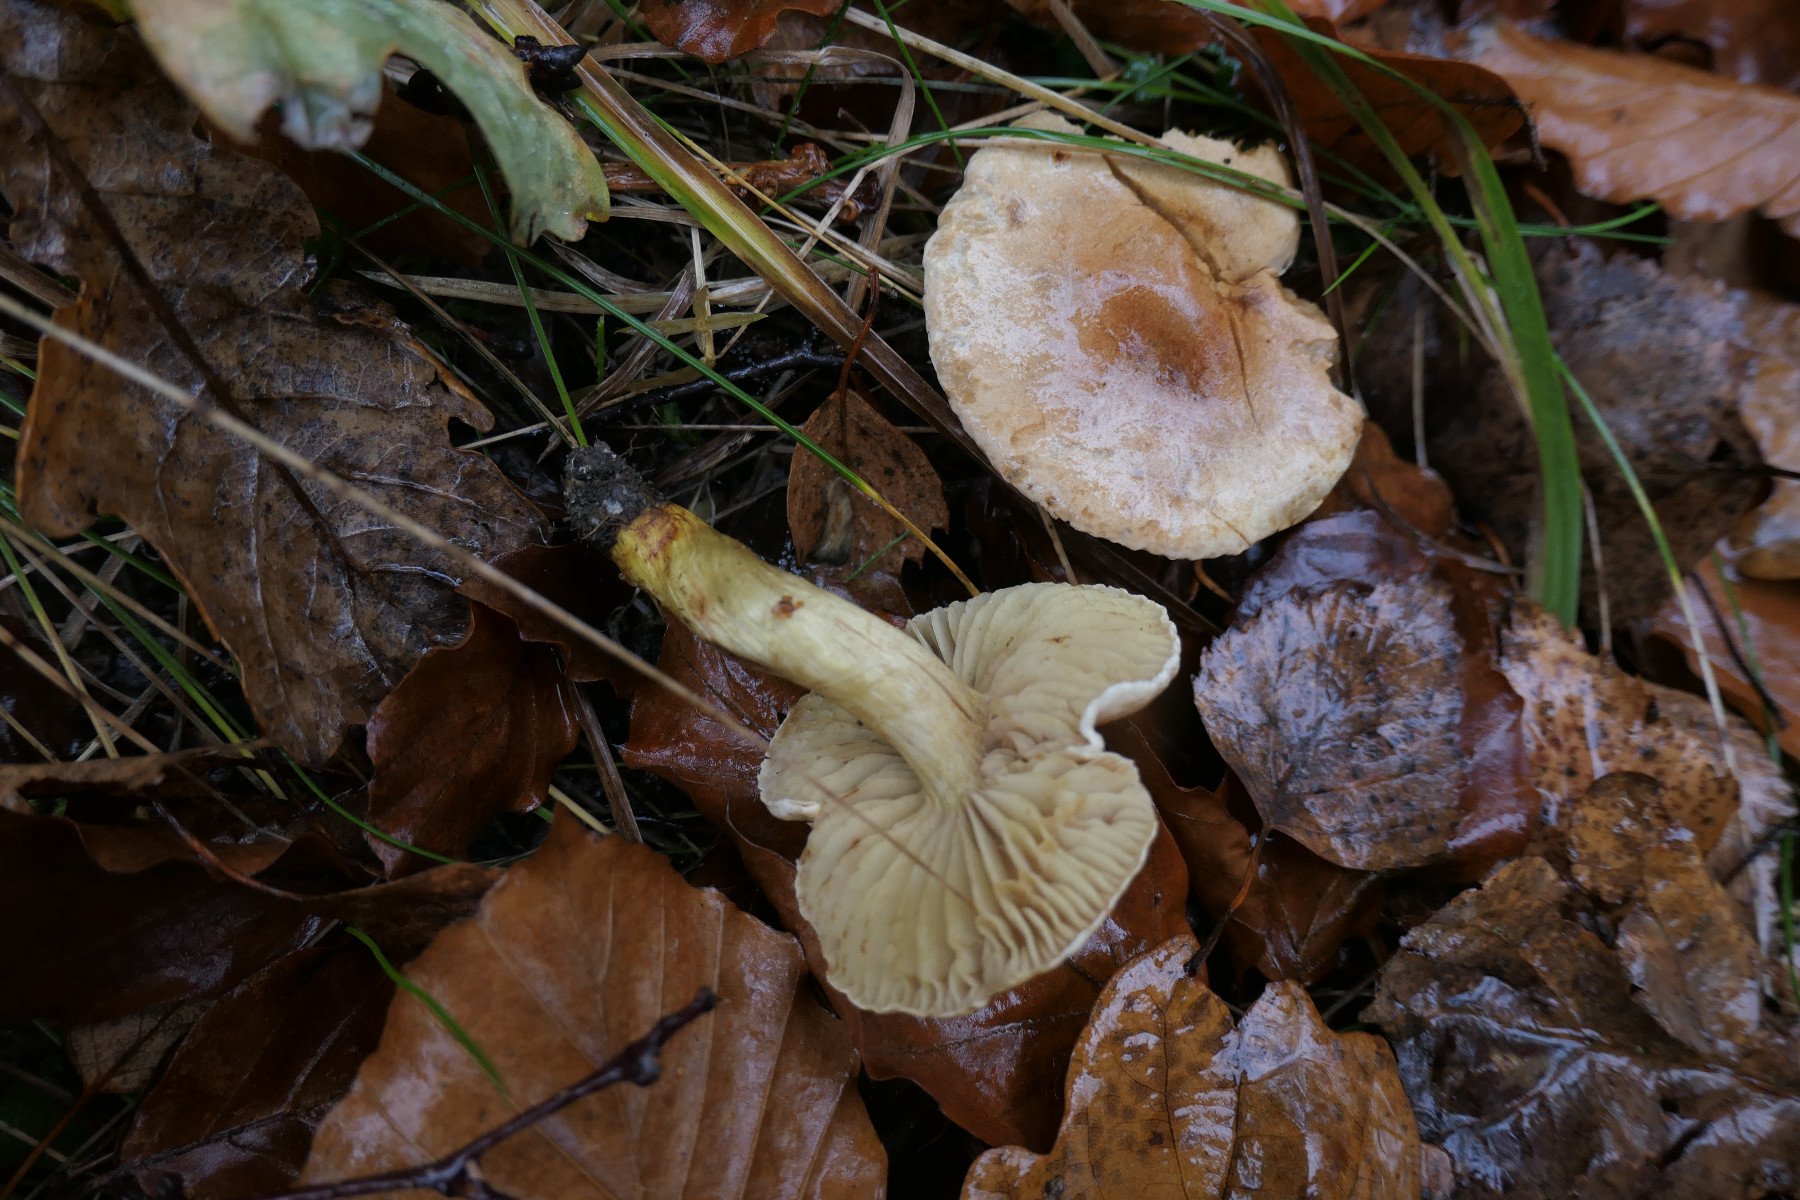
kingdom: Fungi
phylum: Basidiomycota
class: Agaricomycetes
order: Agaricales
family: Tricholomataceae
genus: Tricholoma
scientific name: Tricholoma sulphureum
